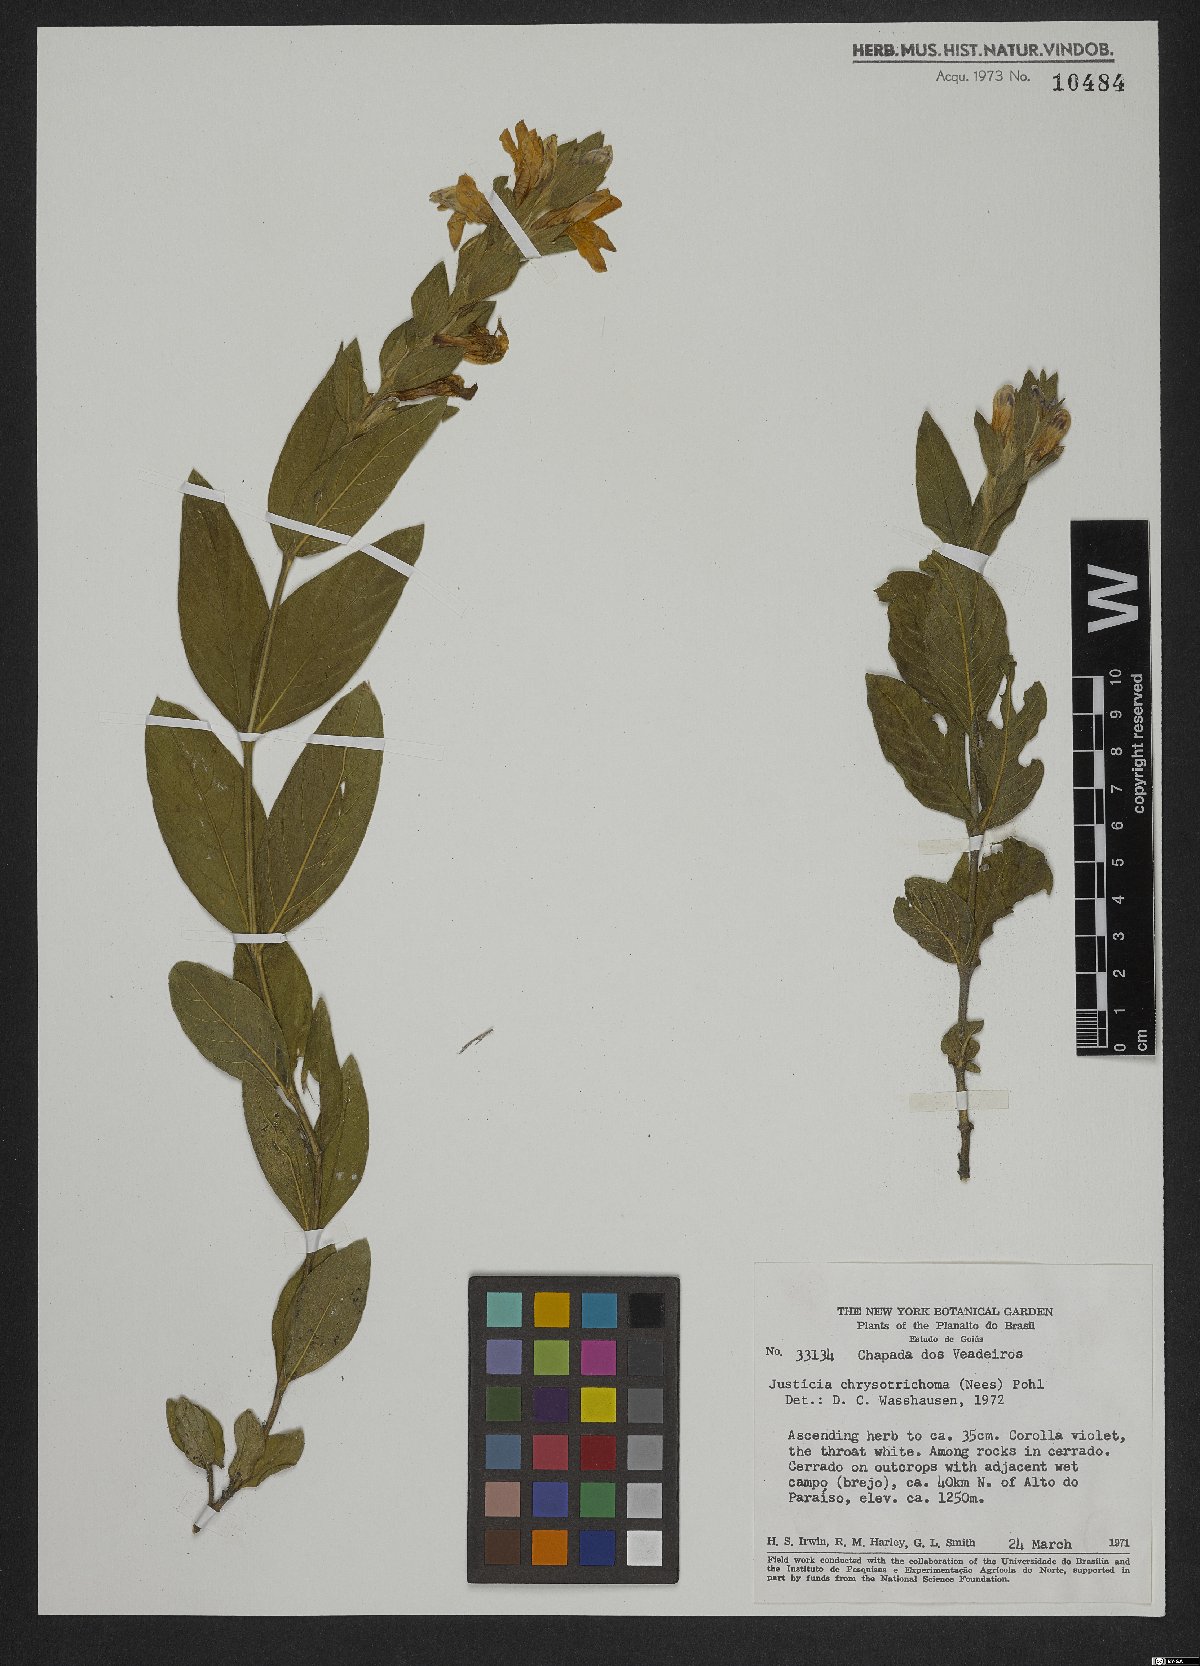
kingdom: Plantae
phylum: Tracheophyta
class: Magnoliopsida
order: Lamiales
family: Acanthaceae
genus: Justicia
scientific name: Justicia chrysotrichoma
